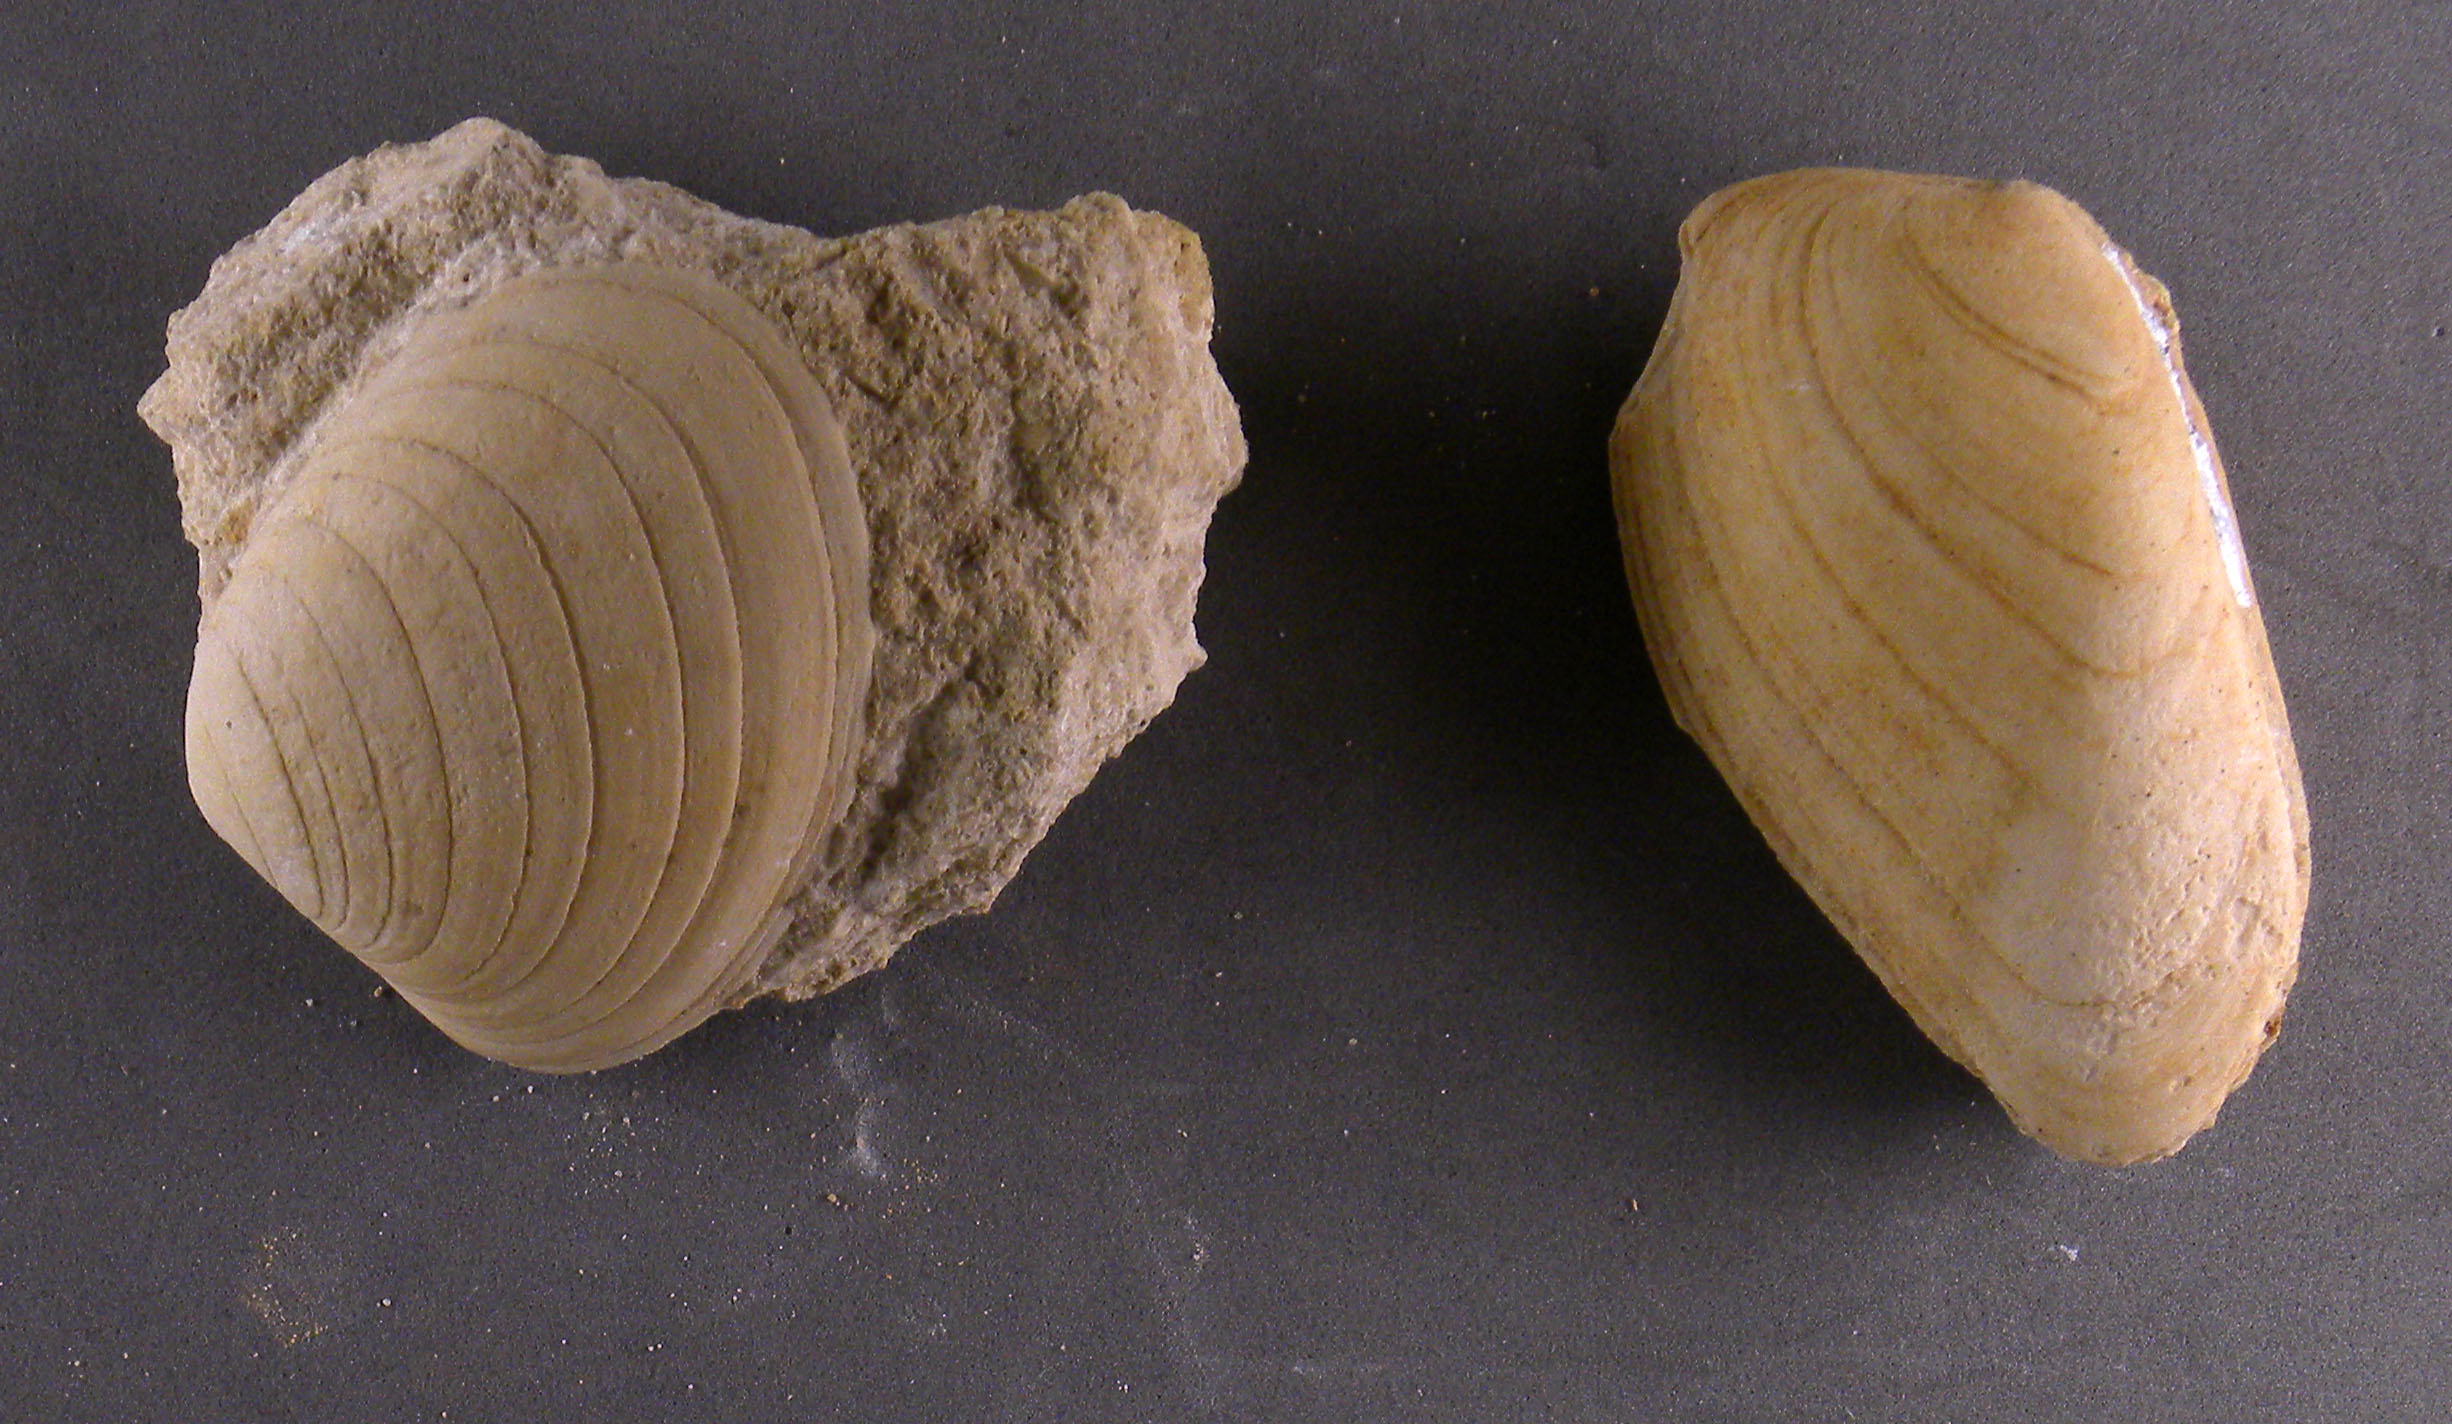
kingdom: Animalia
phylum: Mollusca
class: Bivalvia
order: Carditida
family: Cardiniidae
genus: Cardinia
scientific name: Cardinia
